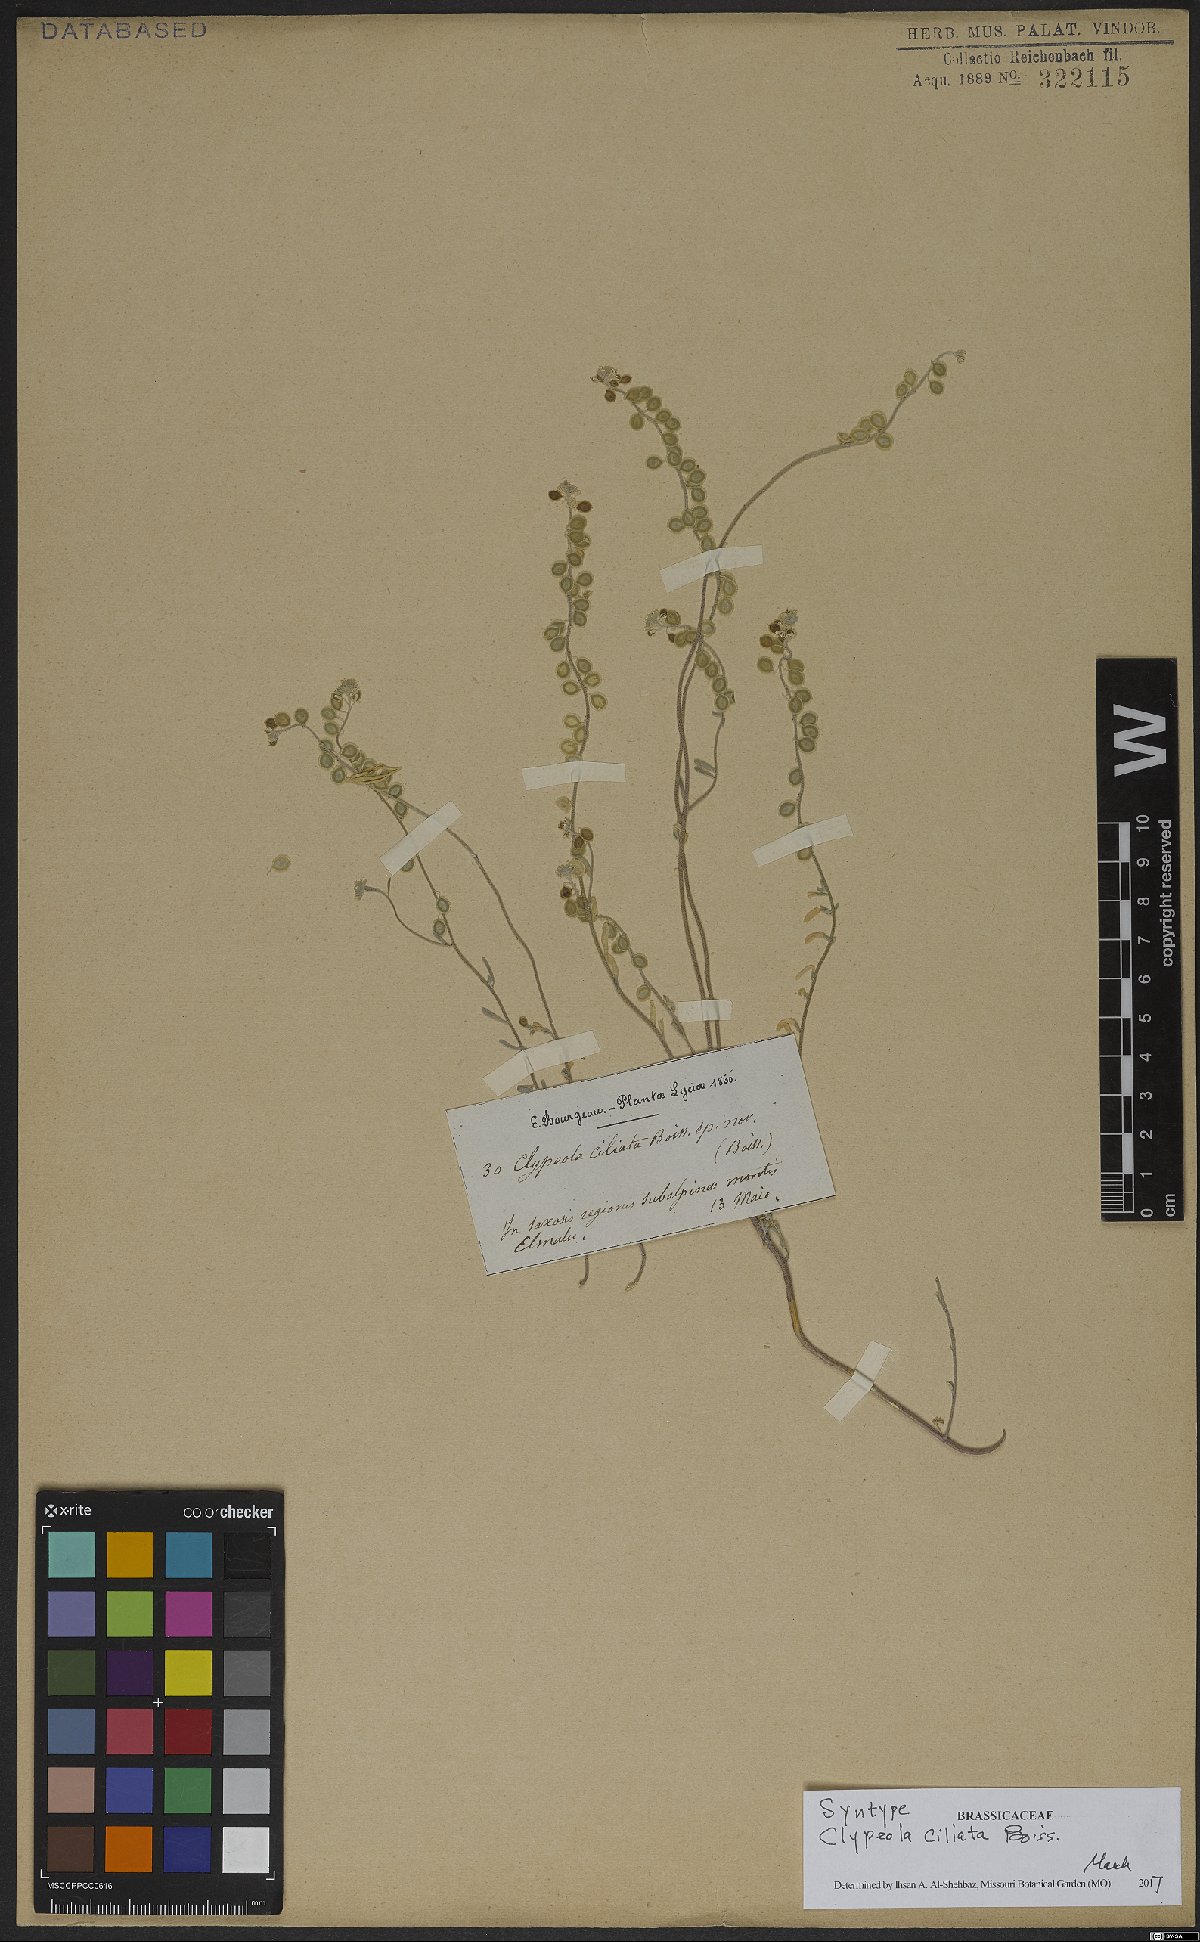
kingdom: Plantae
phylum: Tracheophyta
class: Magnoliopsida
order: Brassicales
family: Brassicaceae
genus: Clypeola
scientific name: Clypeola ciliata
